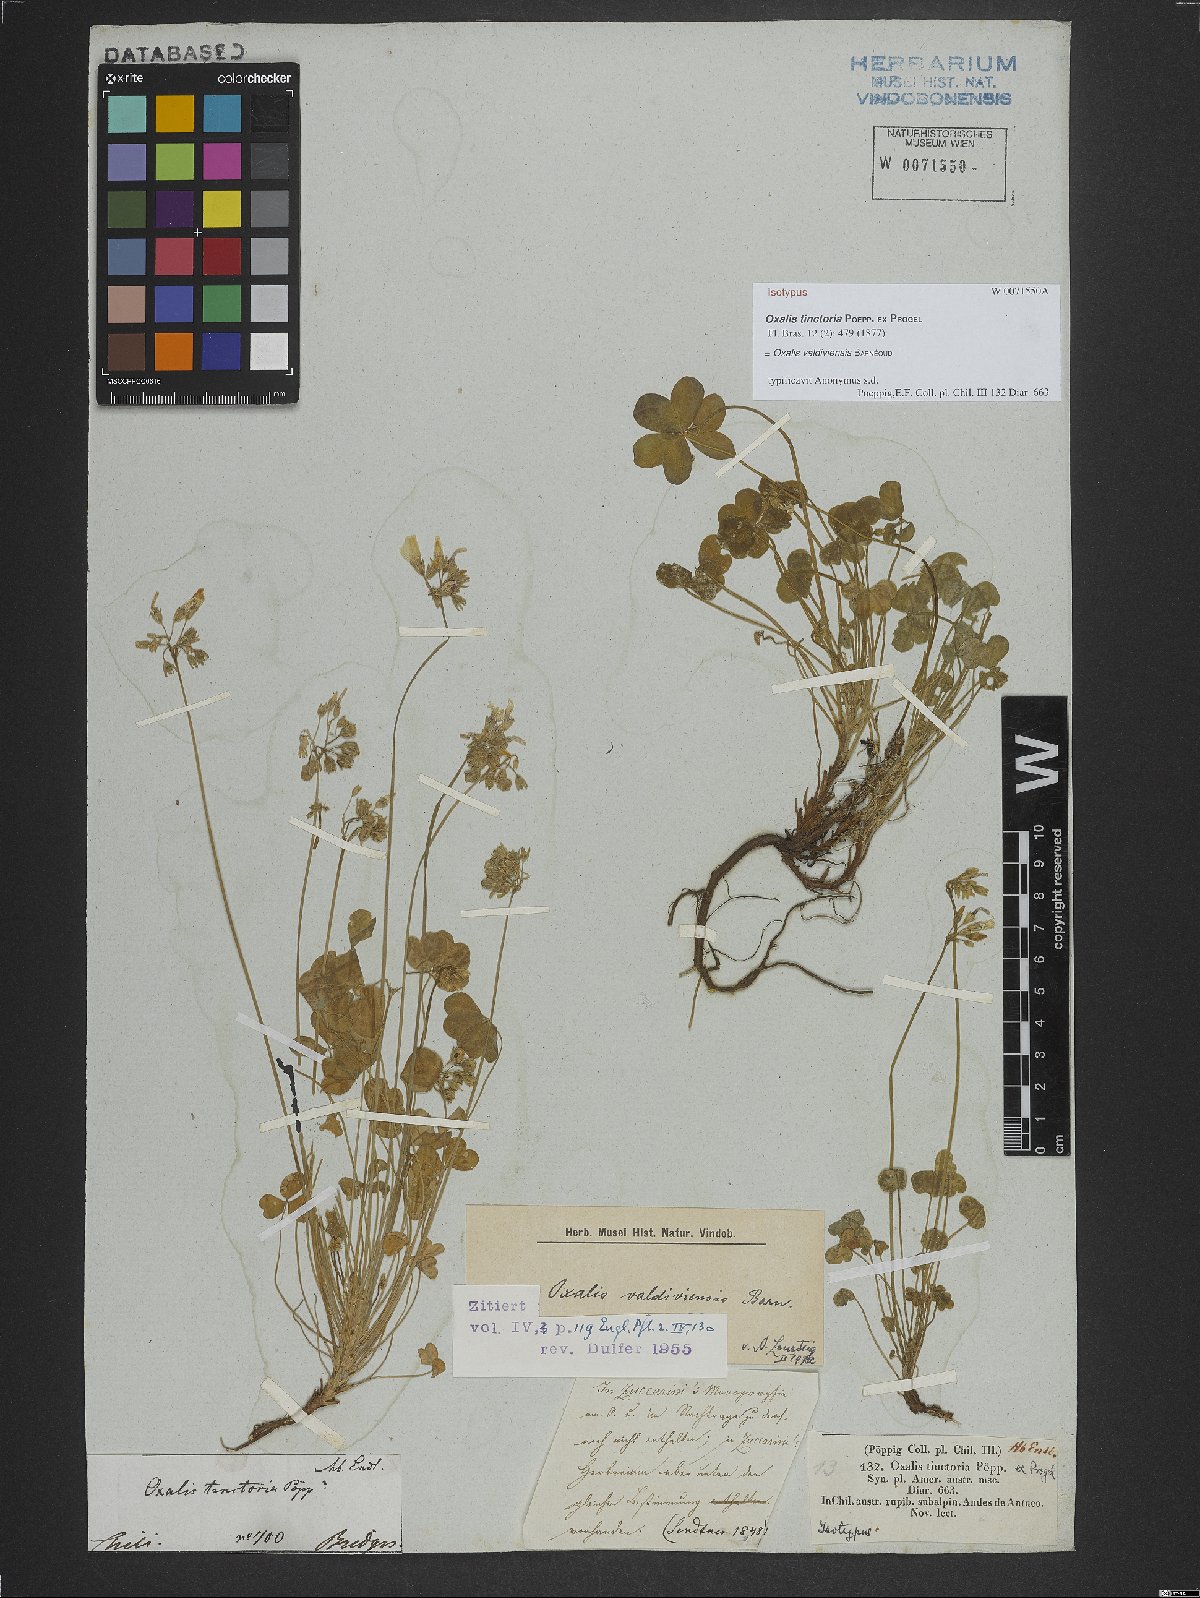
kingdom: Plantae
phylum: Tracheophyta
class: Magnoliopsida
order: Oxalidales
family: Oxalidaceae
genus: Oxalis
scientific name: Oxalis valdiviensis
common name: Chilean yellow-sorrel
